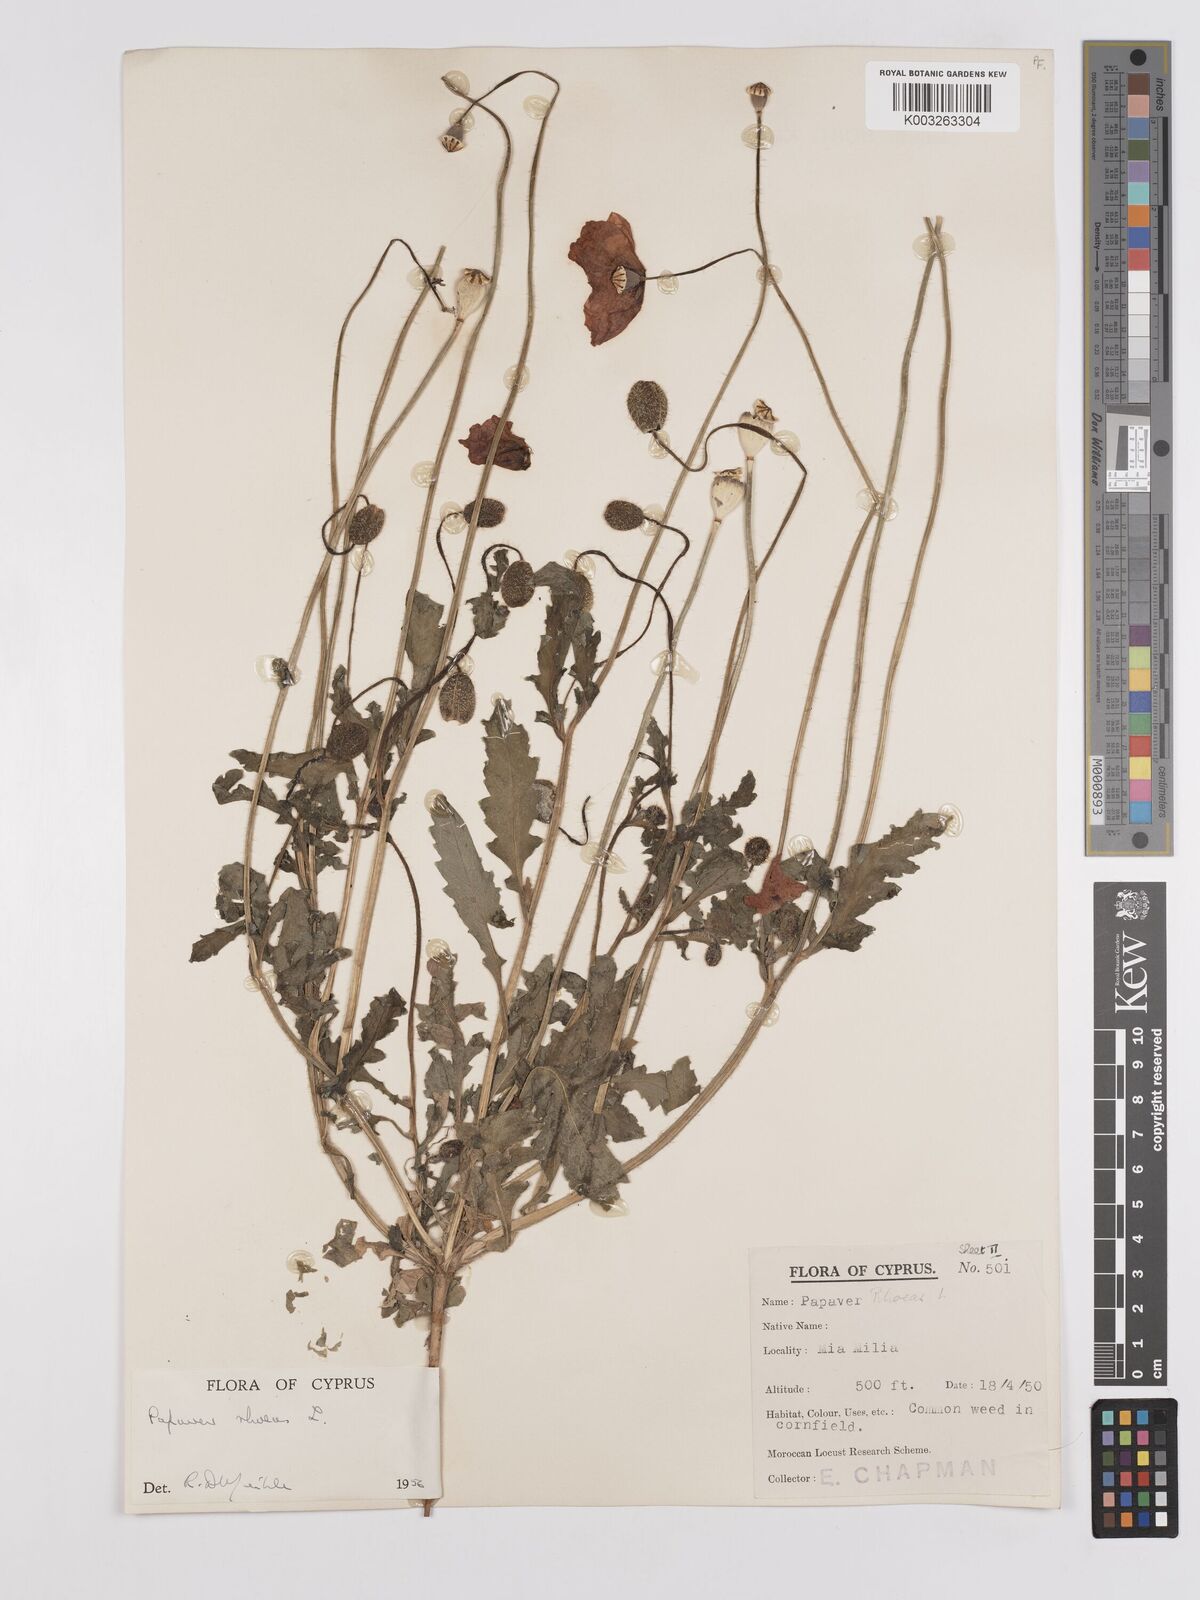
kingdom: Plantae
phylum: Tracheophyta
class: Magnoliopsida
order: Ranunculales
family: Papaveraceae
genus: Papaver
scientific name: Papaver rhoeas
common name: Corn poppy
